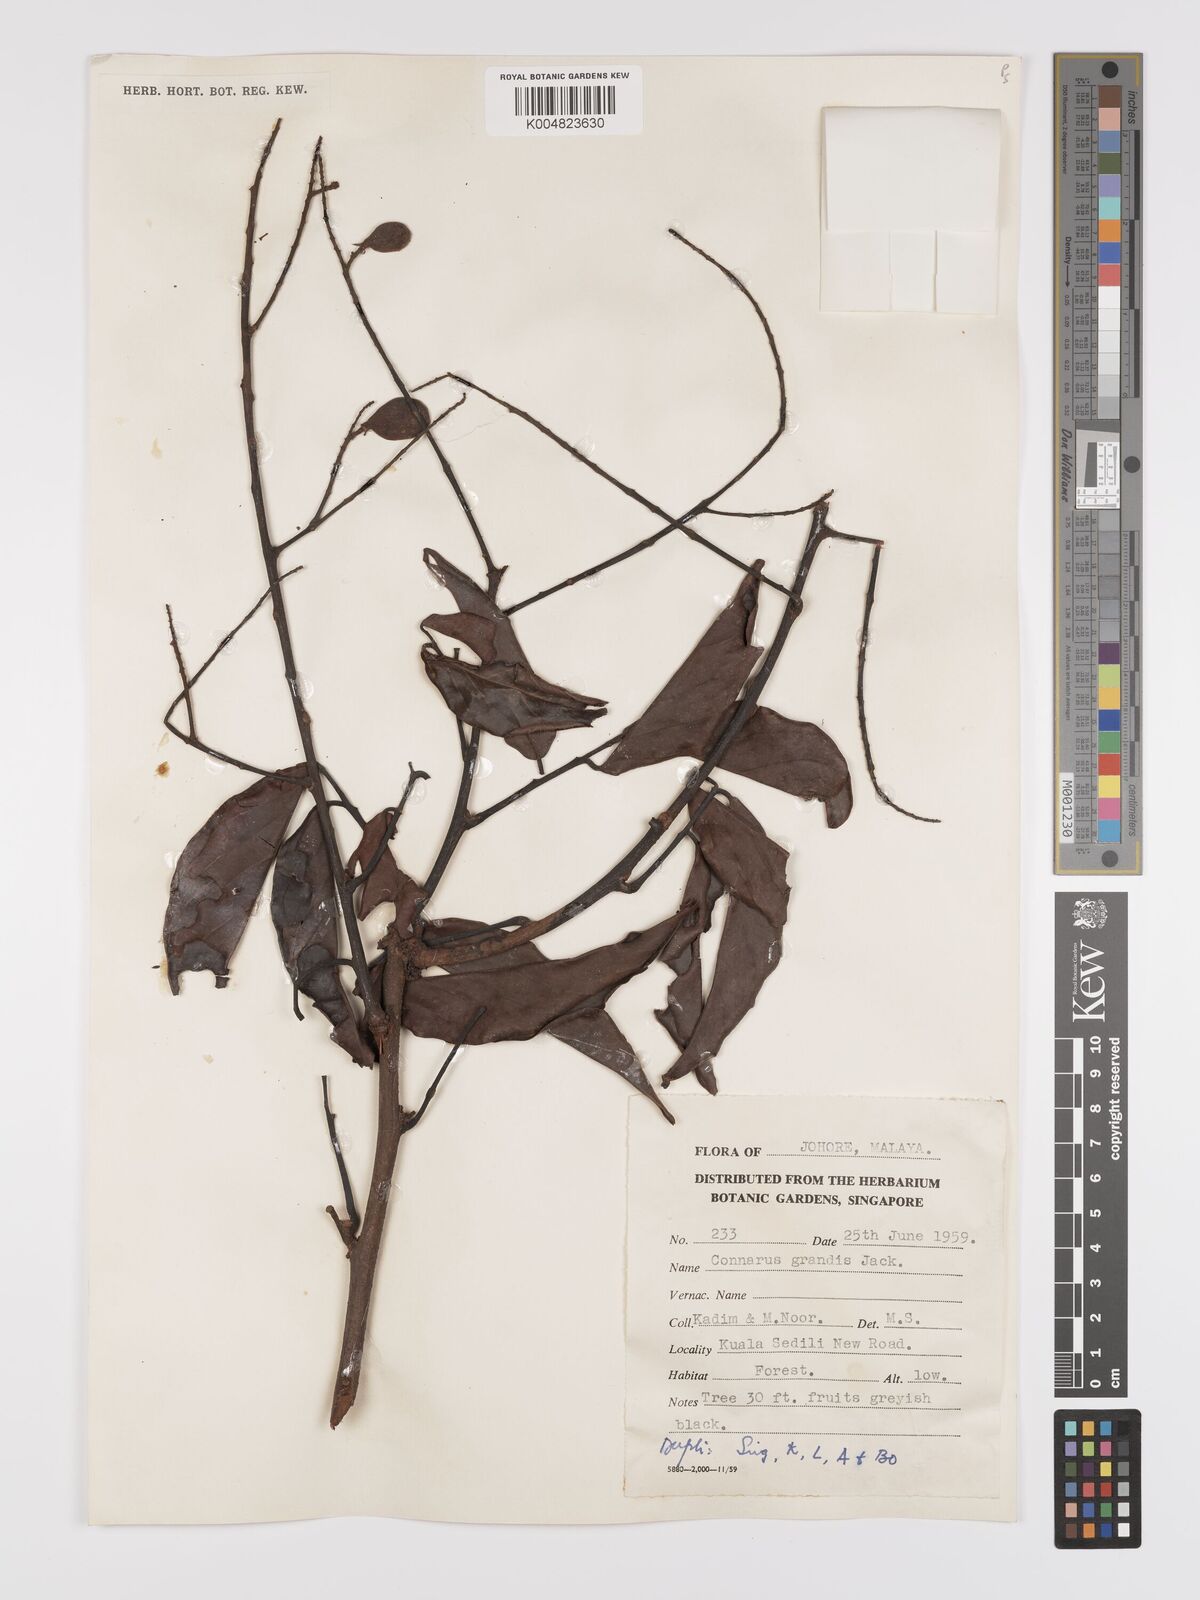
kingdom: Plantae
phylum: Tracheophyta
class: Magnoliopsida
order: Oxalidales
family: Connaraceae
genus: Connarus
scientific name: Connarus grandis
